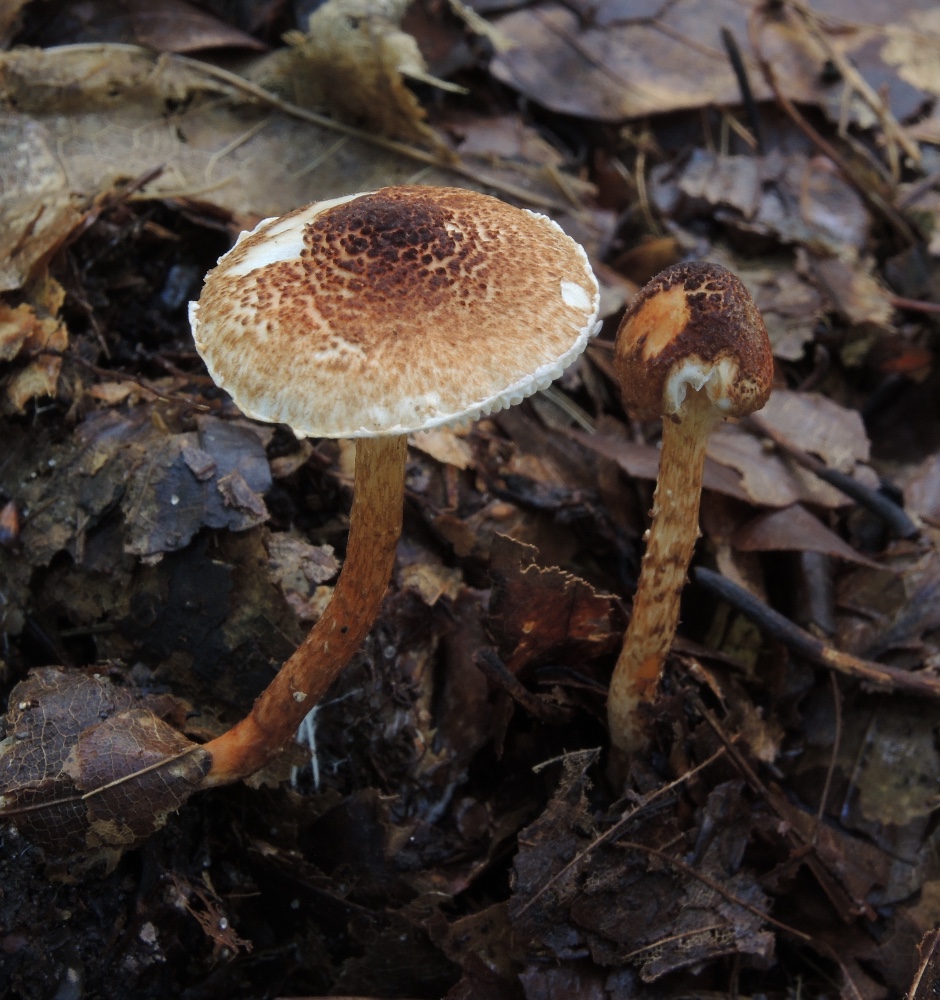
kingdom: Fungi
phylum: Basidiomycota
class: Agaricomycetes
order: Agaricales
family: Agaricaceae
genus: Lepiota
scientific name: Lepiota castanea
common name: kastaniebrun parasolhat
